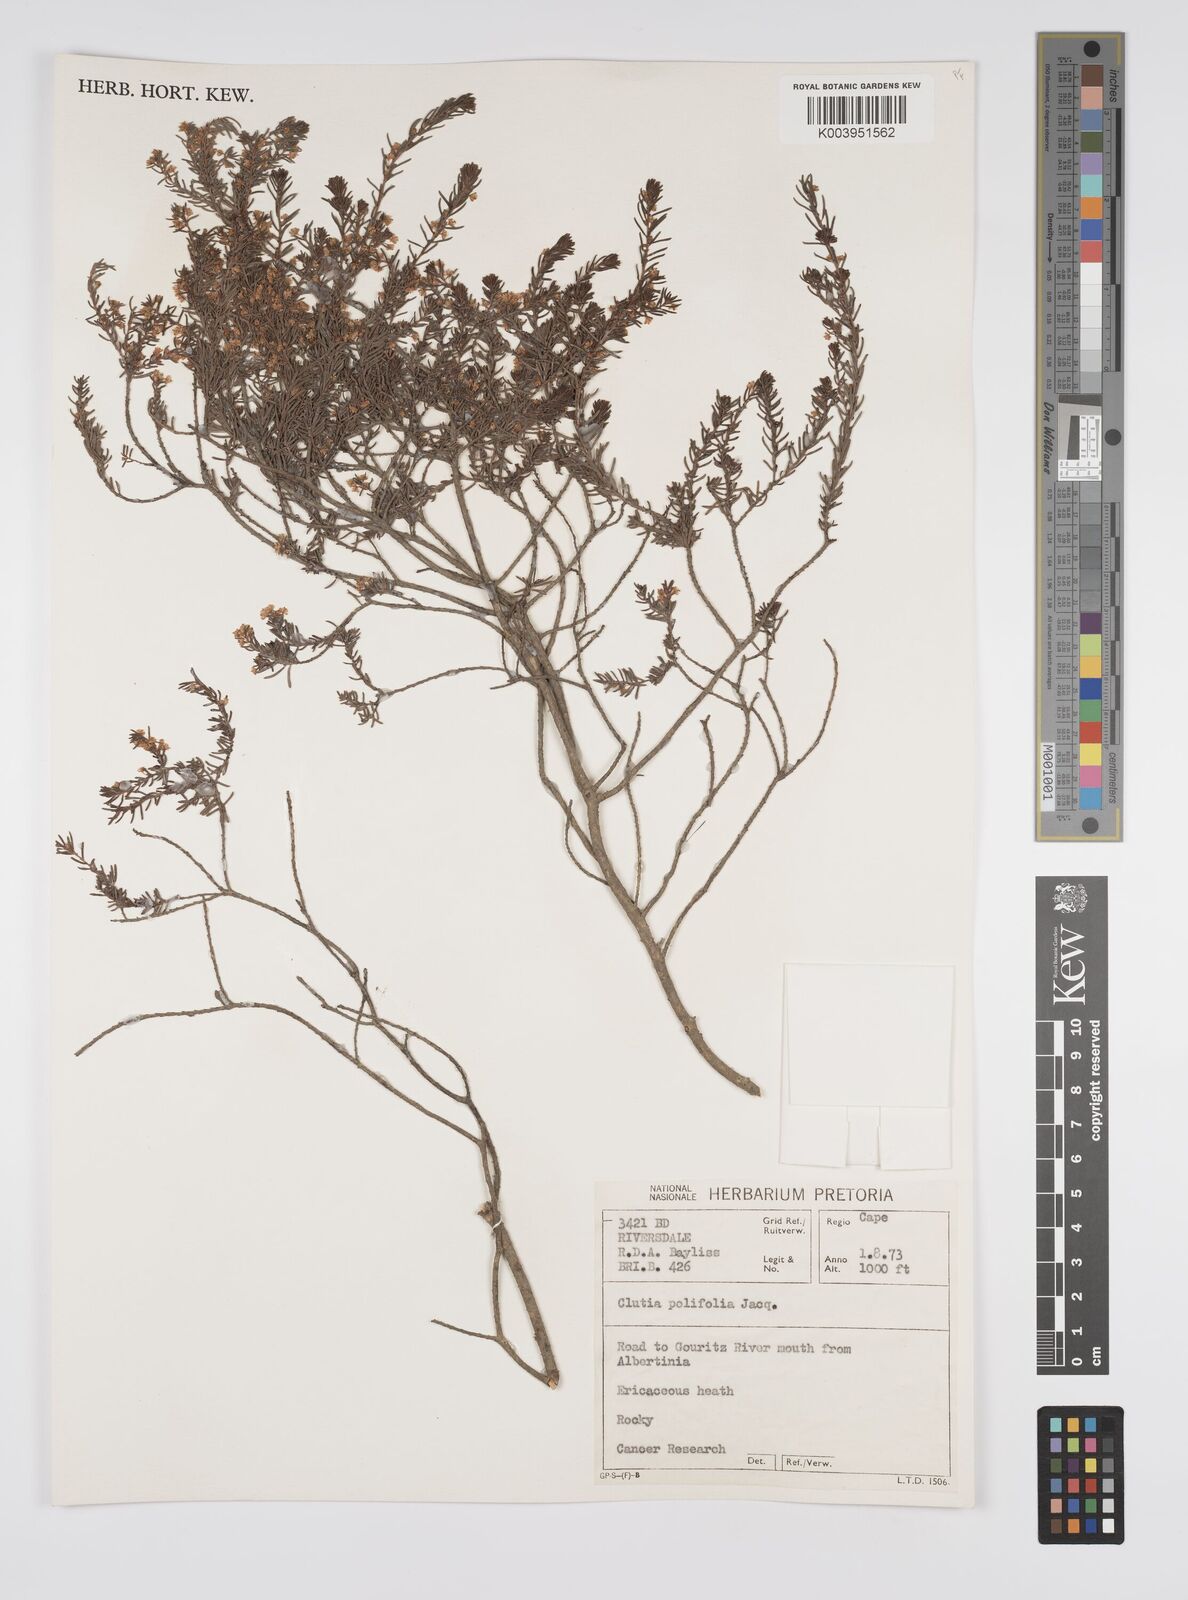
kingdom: Plantae
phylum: Tracheophyta
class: Magnoliopsida
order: Malpighiales
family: Peraceae
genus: Clutia
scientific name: Clutia
